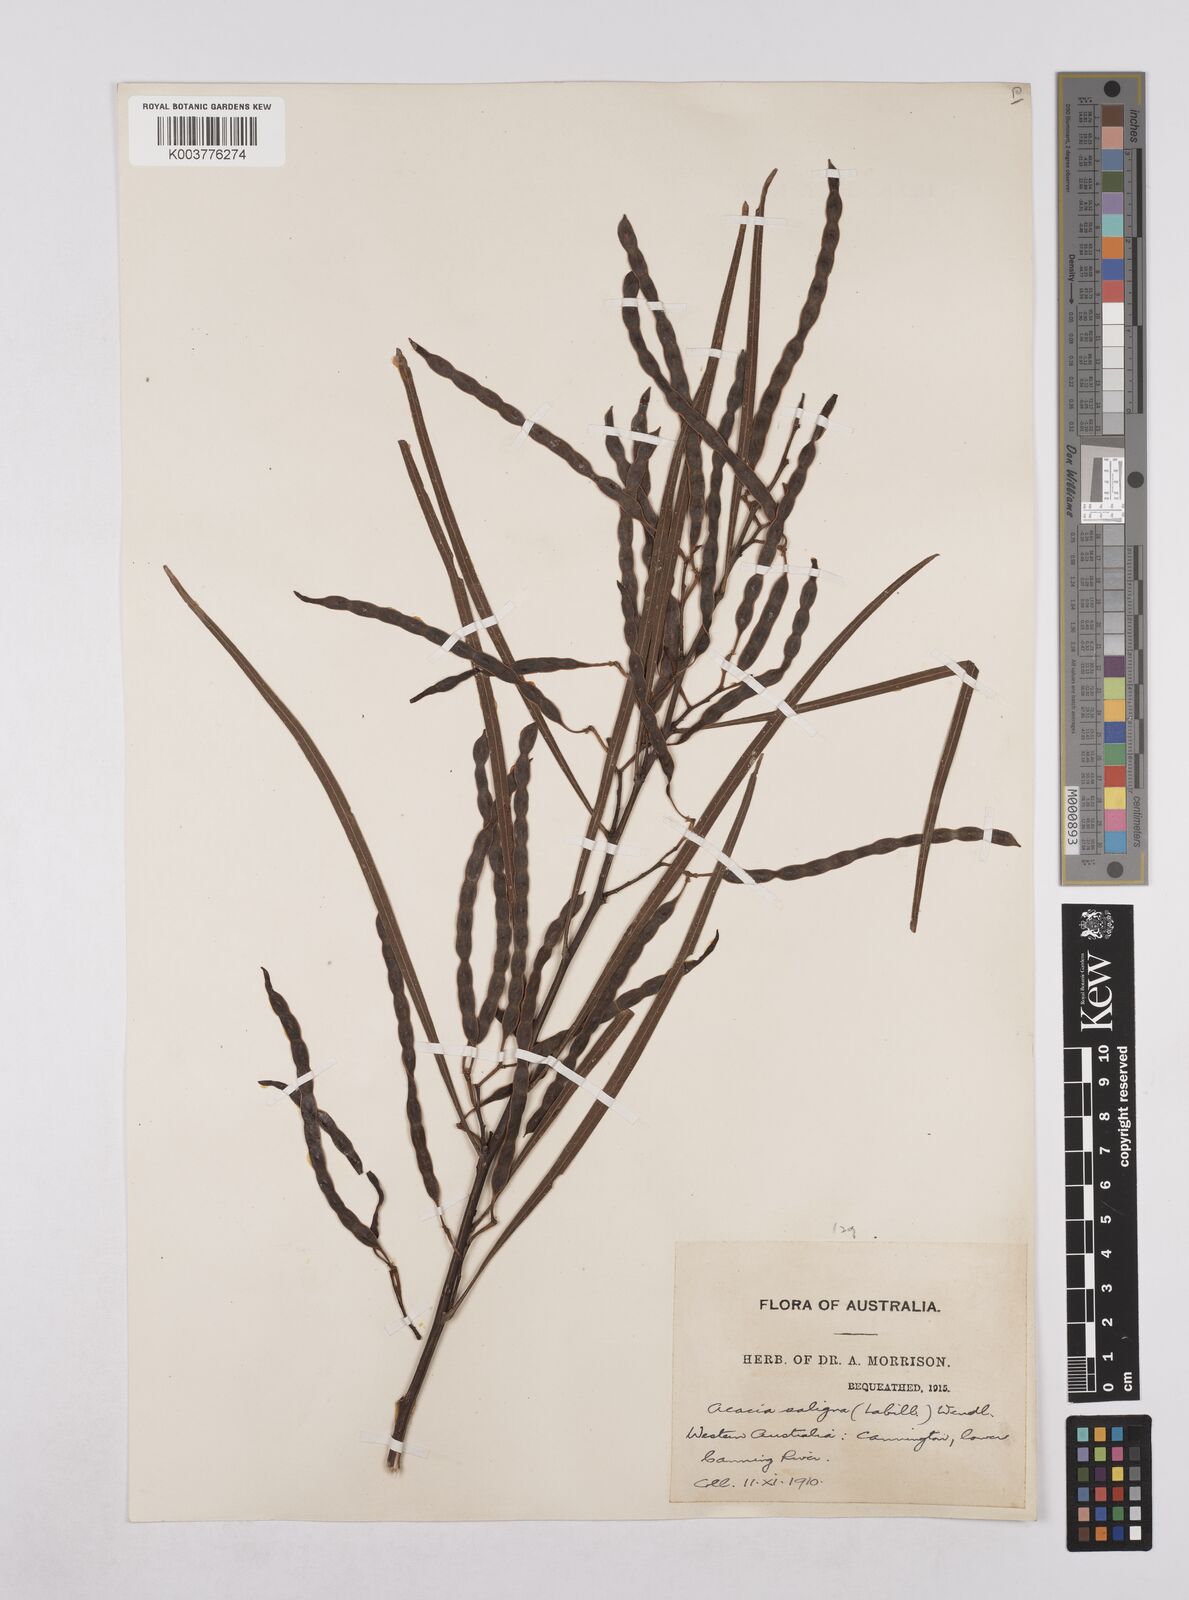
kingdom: Plantae
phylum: Tracheophyta
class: Magnoliopsida
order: Fabales
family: Fabaceae
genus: Acacia
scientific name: Acacia saligna
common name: Orange wattle
